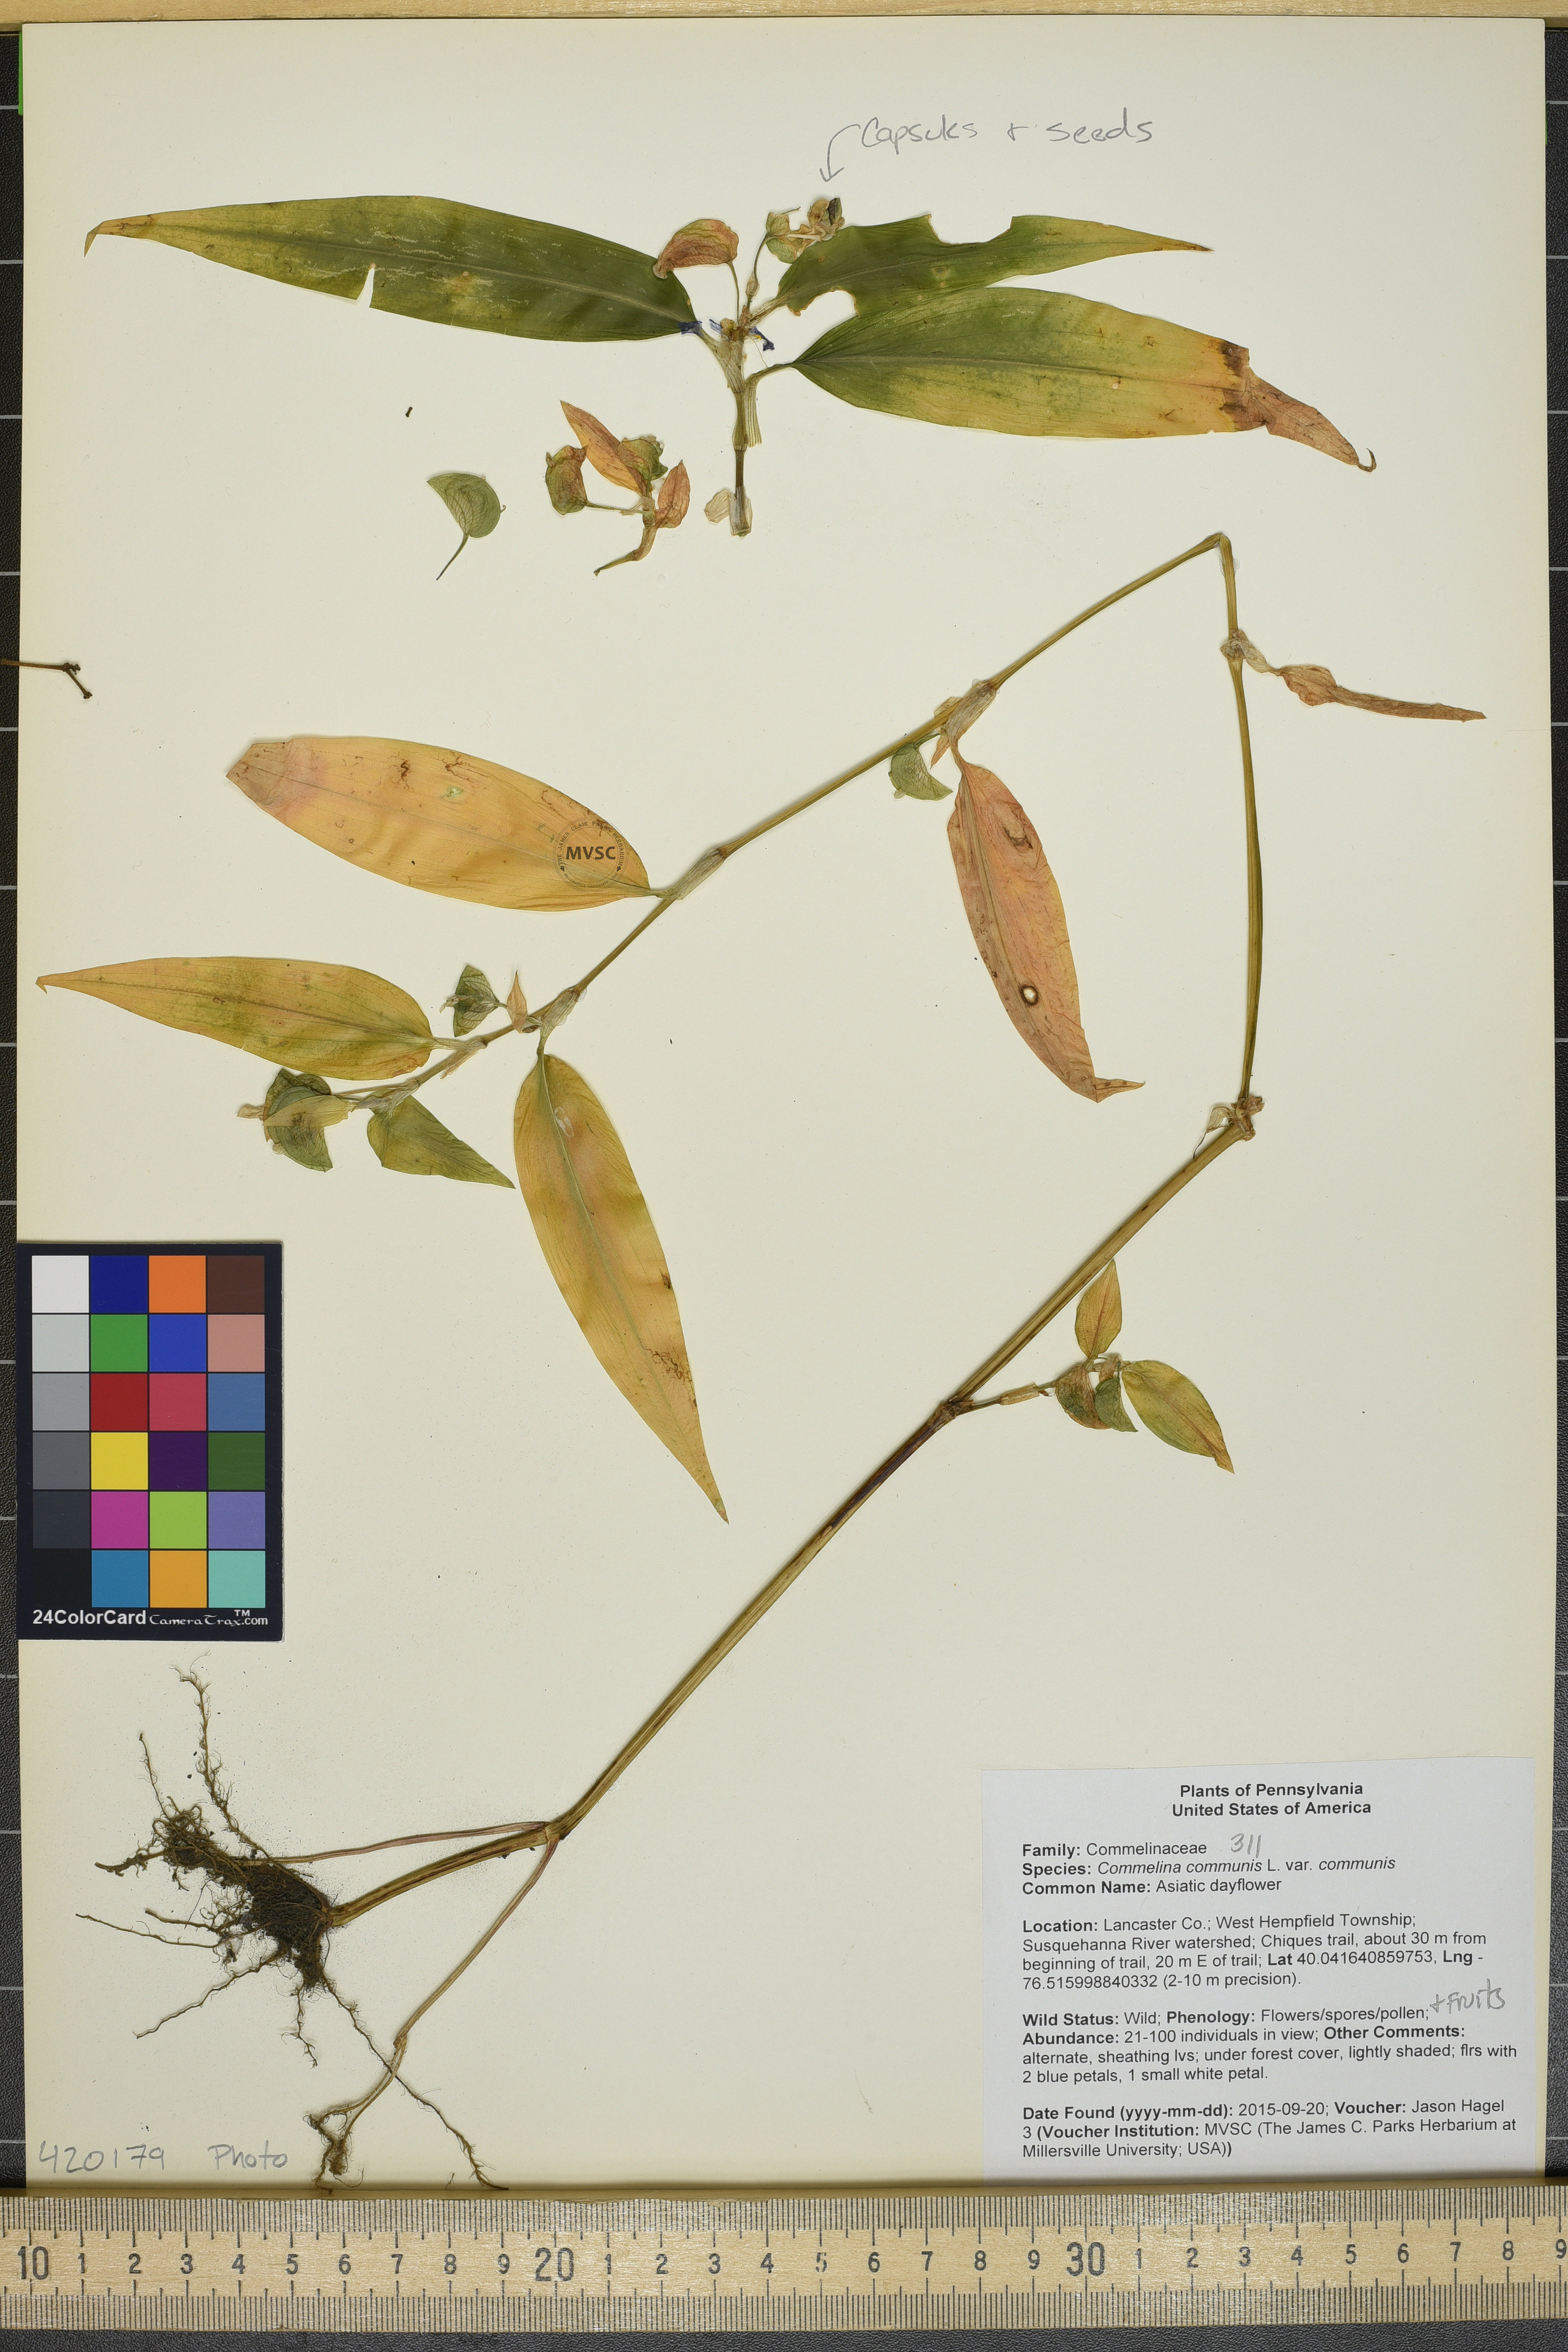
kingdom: Plantae
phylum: Tracheophyta
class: Liliopsida
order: Commelinales
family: Commelinaceae
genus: Commelina
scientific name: Commelina communis
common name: Asiatic dayflower
